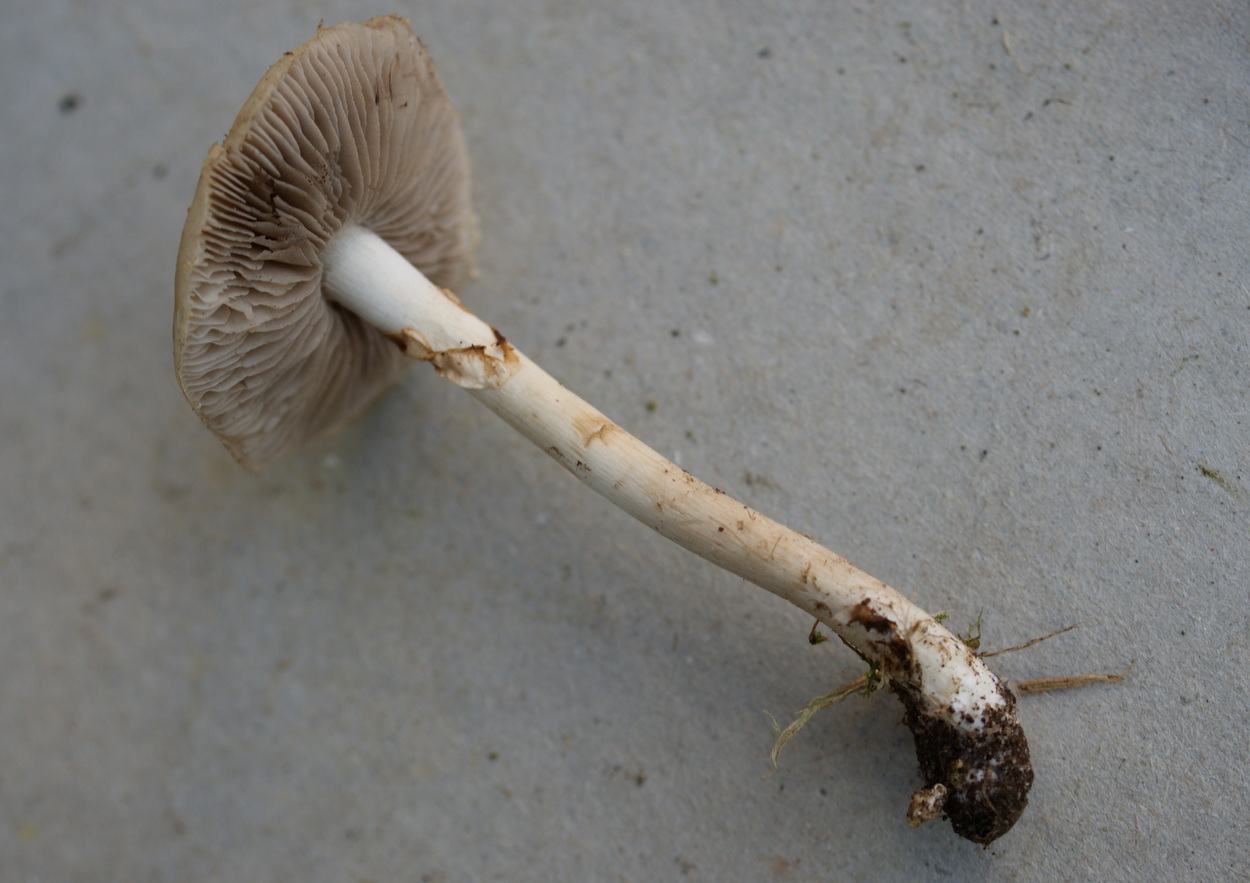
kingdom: Fungi
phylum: Basidiomycota
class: Agaricomycetes
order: Agaricales
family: Strophariaceae
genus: Agrocybe
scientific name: Agrocybe praecox
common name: tidlig agerhat
